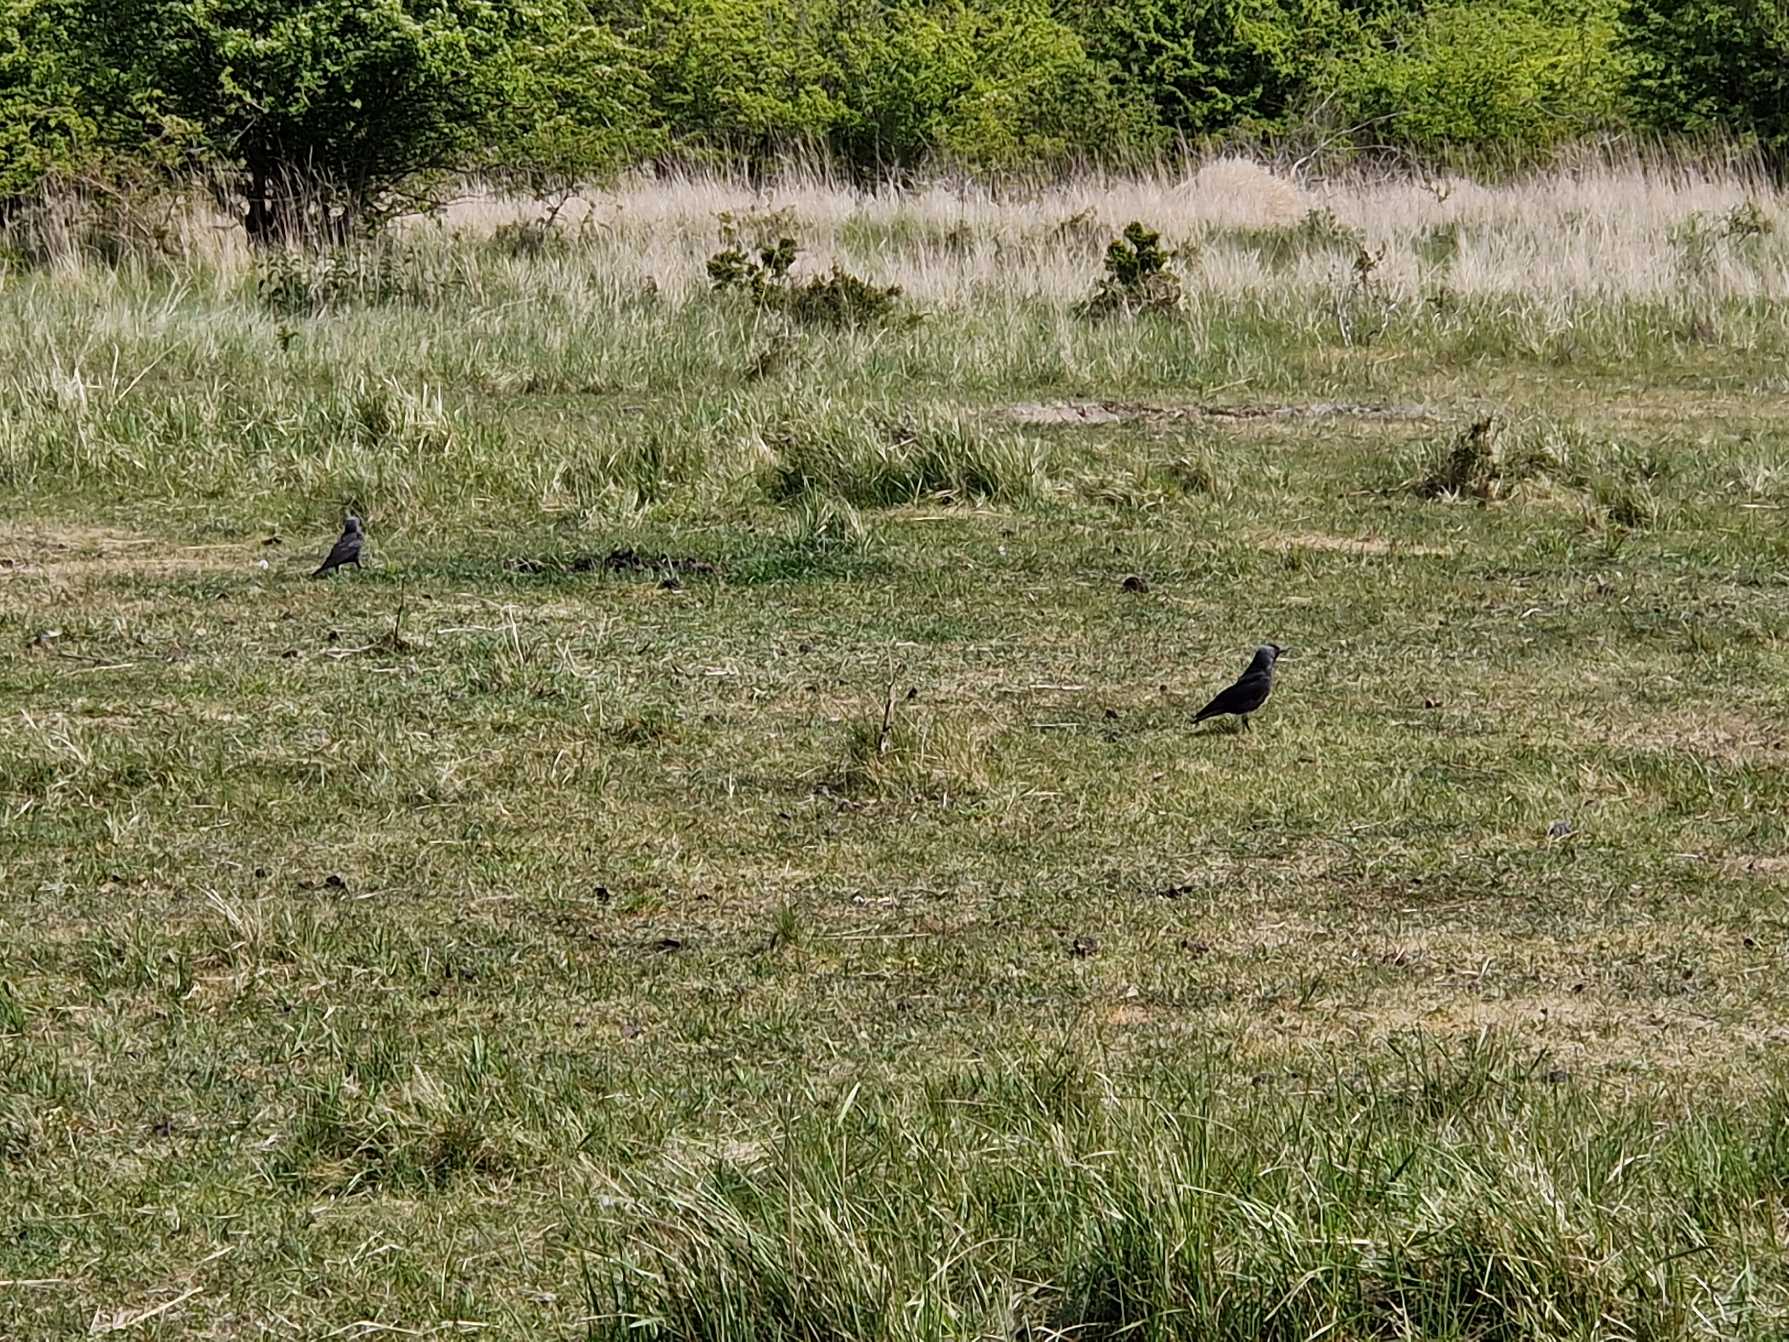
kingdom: Animalia
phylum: Chordata
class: Aves
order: Passeriformes
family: Corvidae
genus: Coloeus
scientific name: Coloeus monedula
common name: Allike
